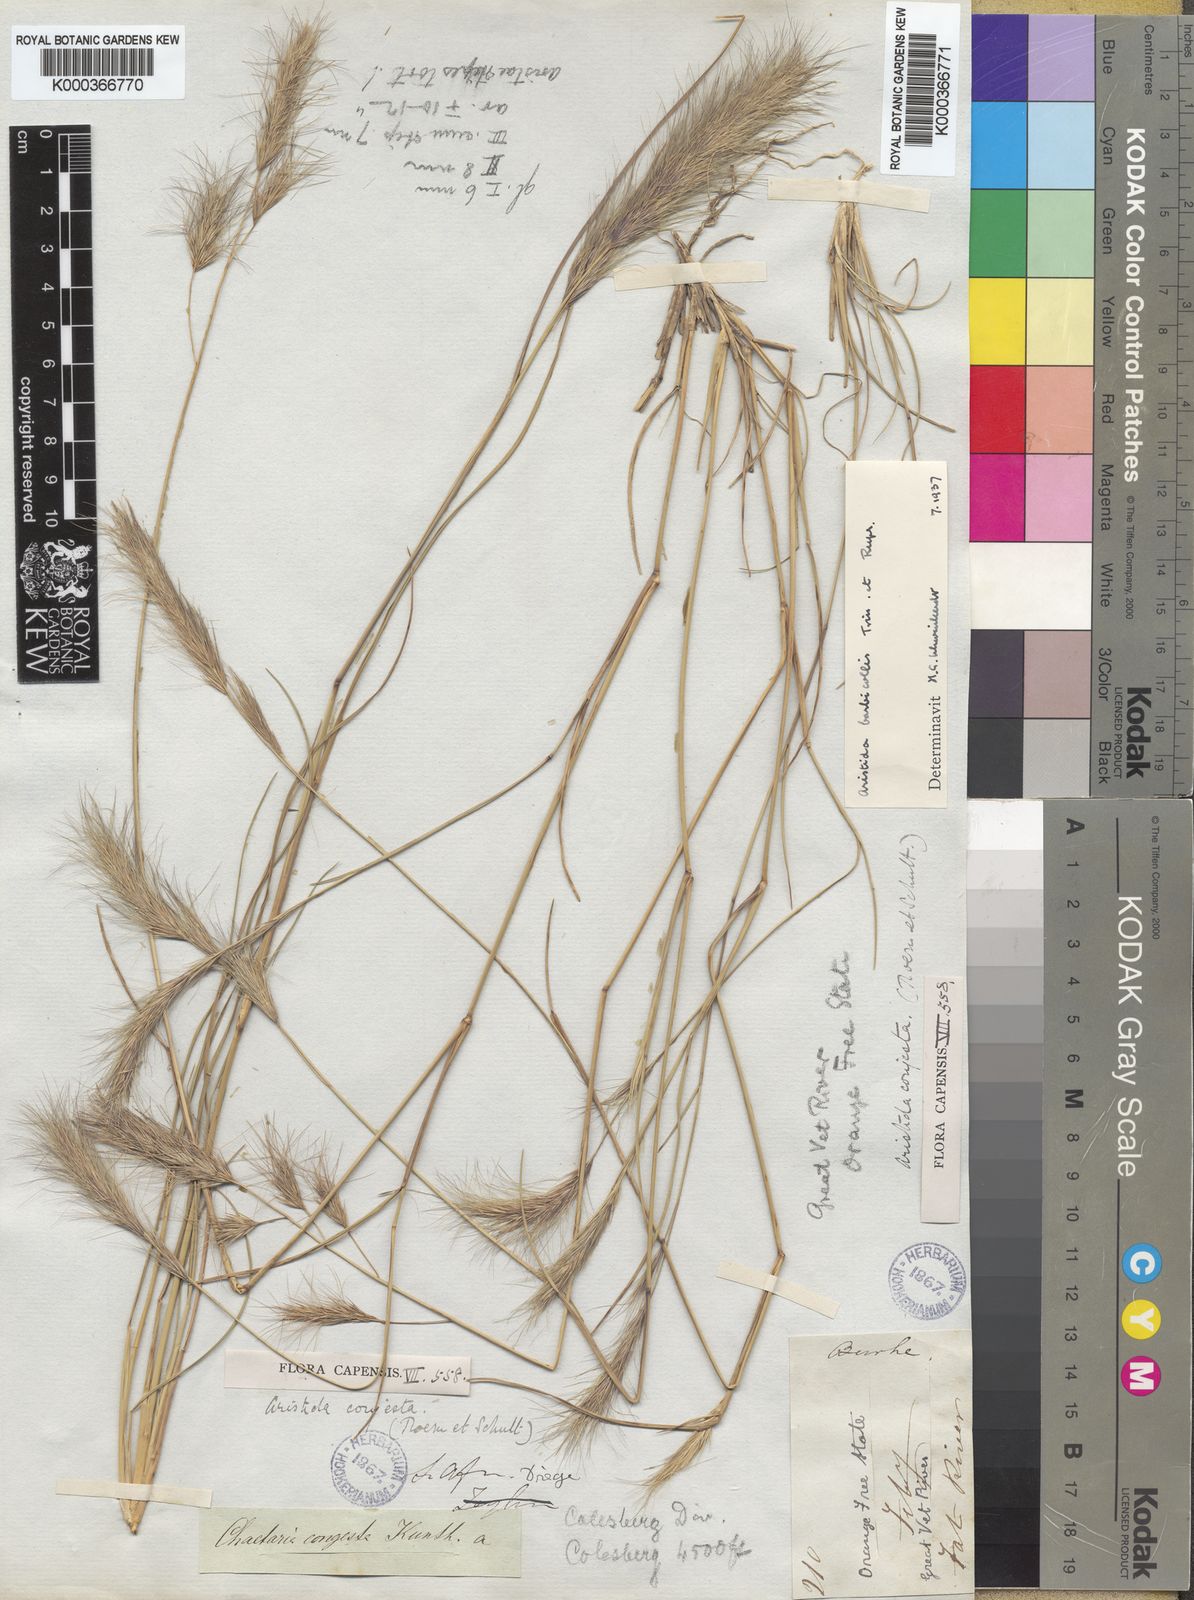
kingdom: Plantae
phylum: Tracheophyta
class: Liliopsida
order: Poales
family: Poaceae
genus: Aristida
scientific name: Aristida barbicollis
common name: Spreading prickle grass
